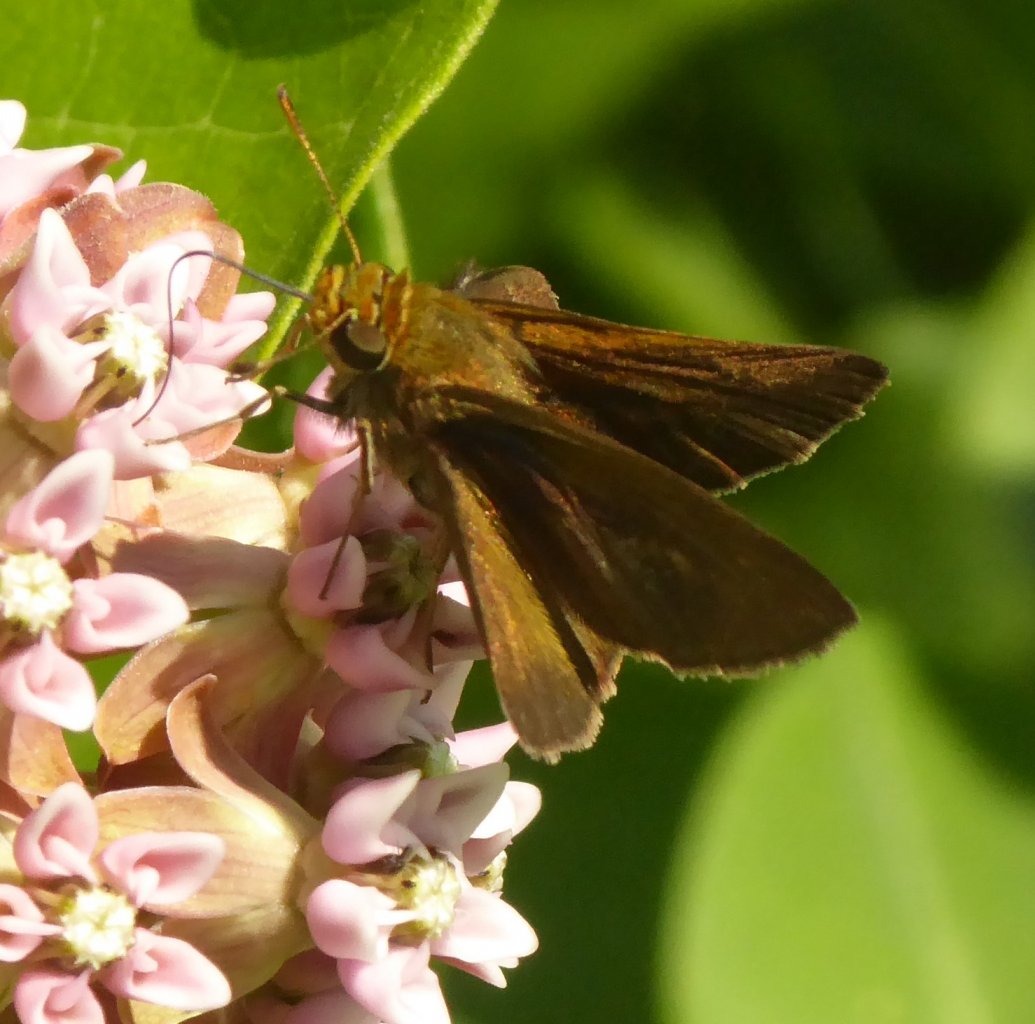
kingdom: Animalia
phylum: Arthropoda
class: Insecta
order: Lepidoptera
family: Hesperiidae
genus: Polites
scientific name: Polites egeremet
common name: Northern Broken-Dash
